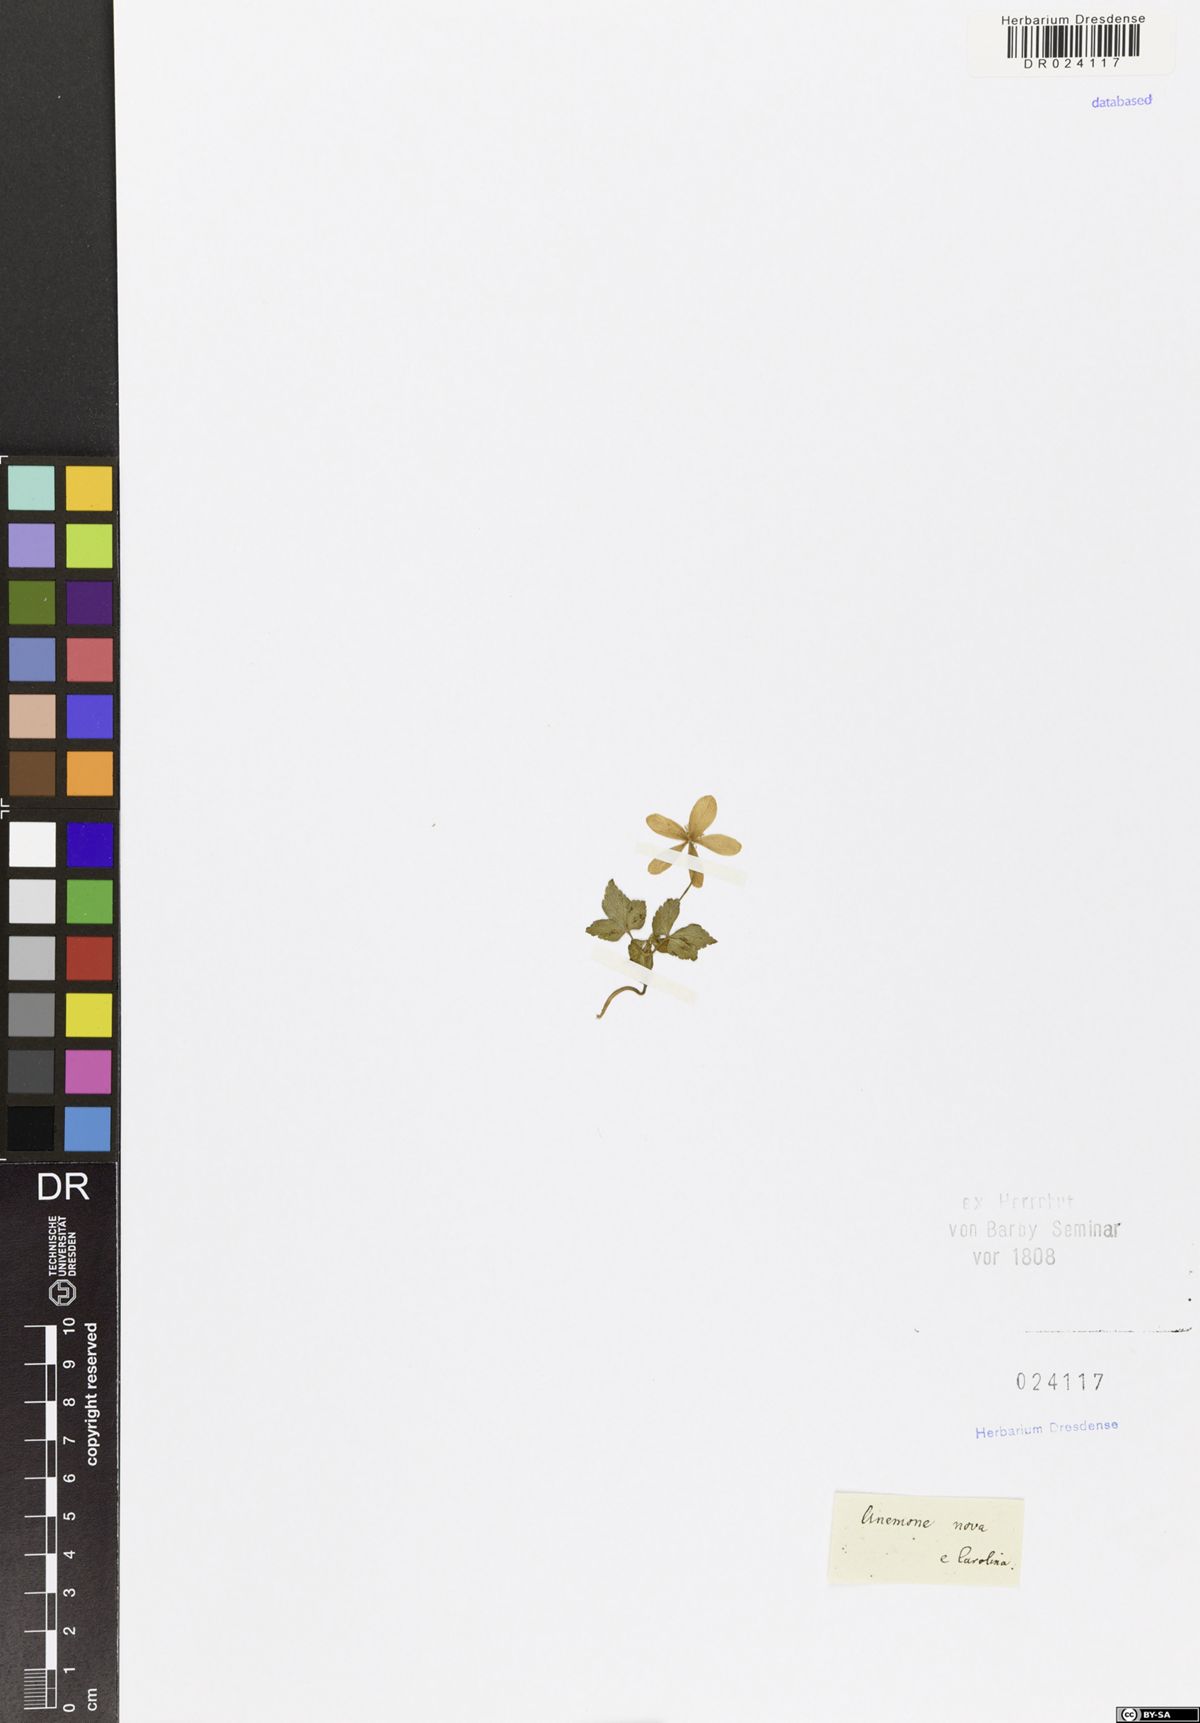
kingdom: Plantae
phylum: Tracheophyta
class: Magnoliopsida
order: Ranunculales
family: Ranunculaceae
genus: Anemone
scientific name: Anemone lancifolia
